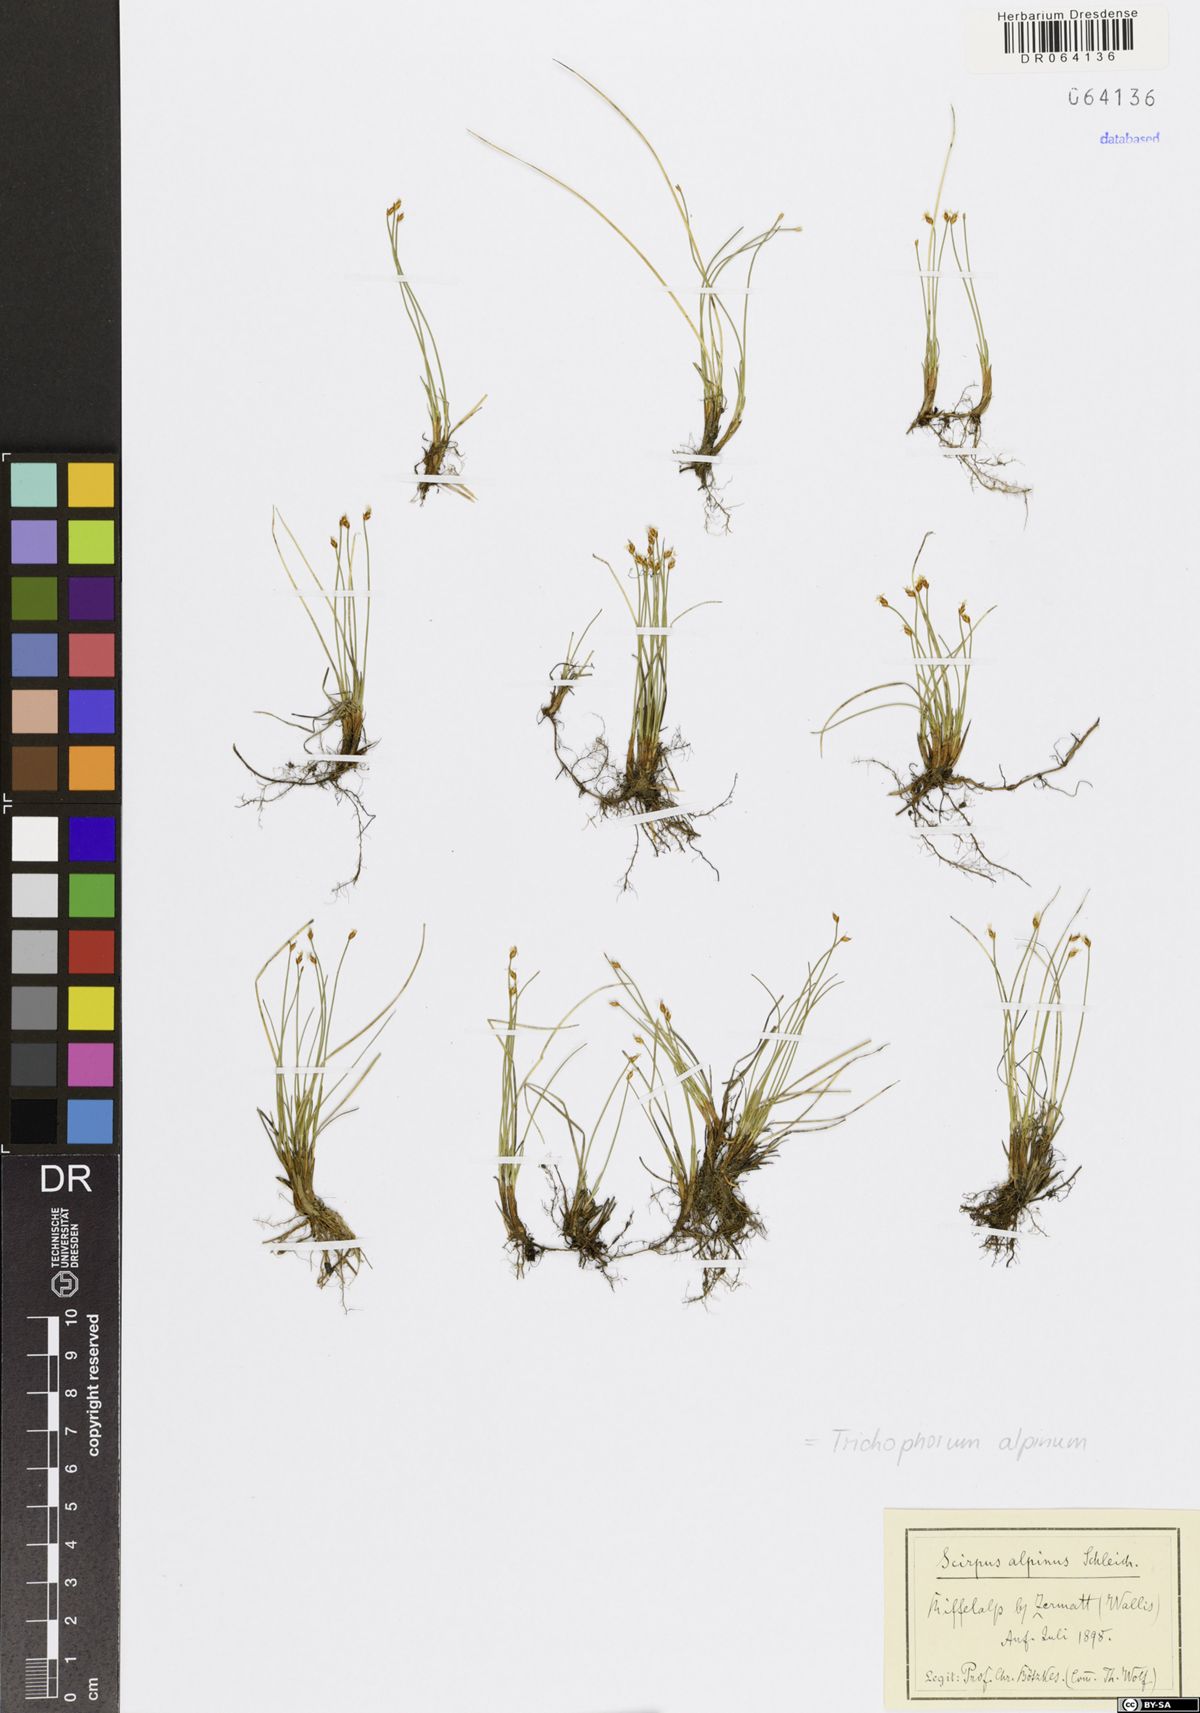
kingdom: Plantae
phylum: Tracheophyta
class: Liliopsida
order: Poales
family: Cyperaceae
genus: Trichophorum
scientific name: Trichophorum alpinum
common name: Alpine bulrush
